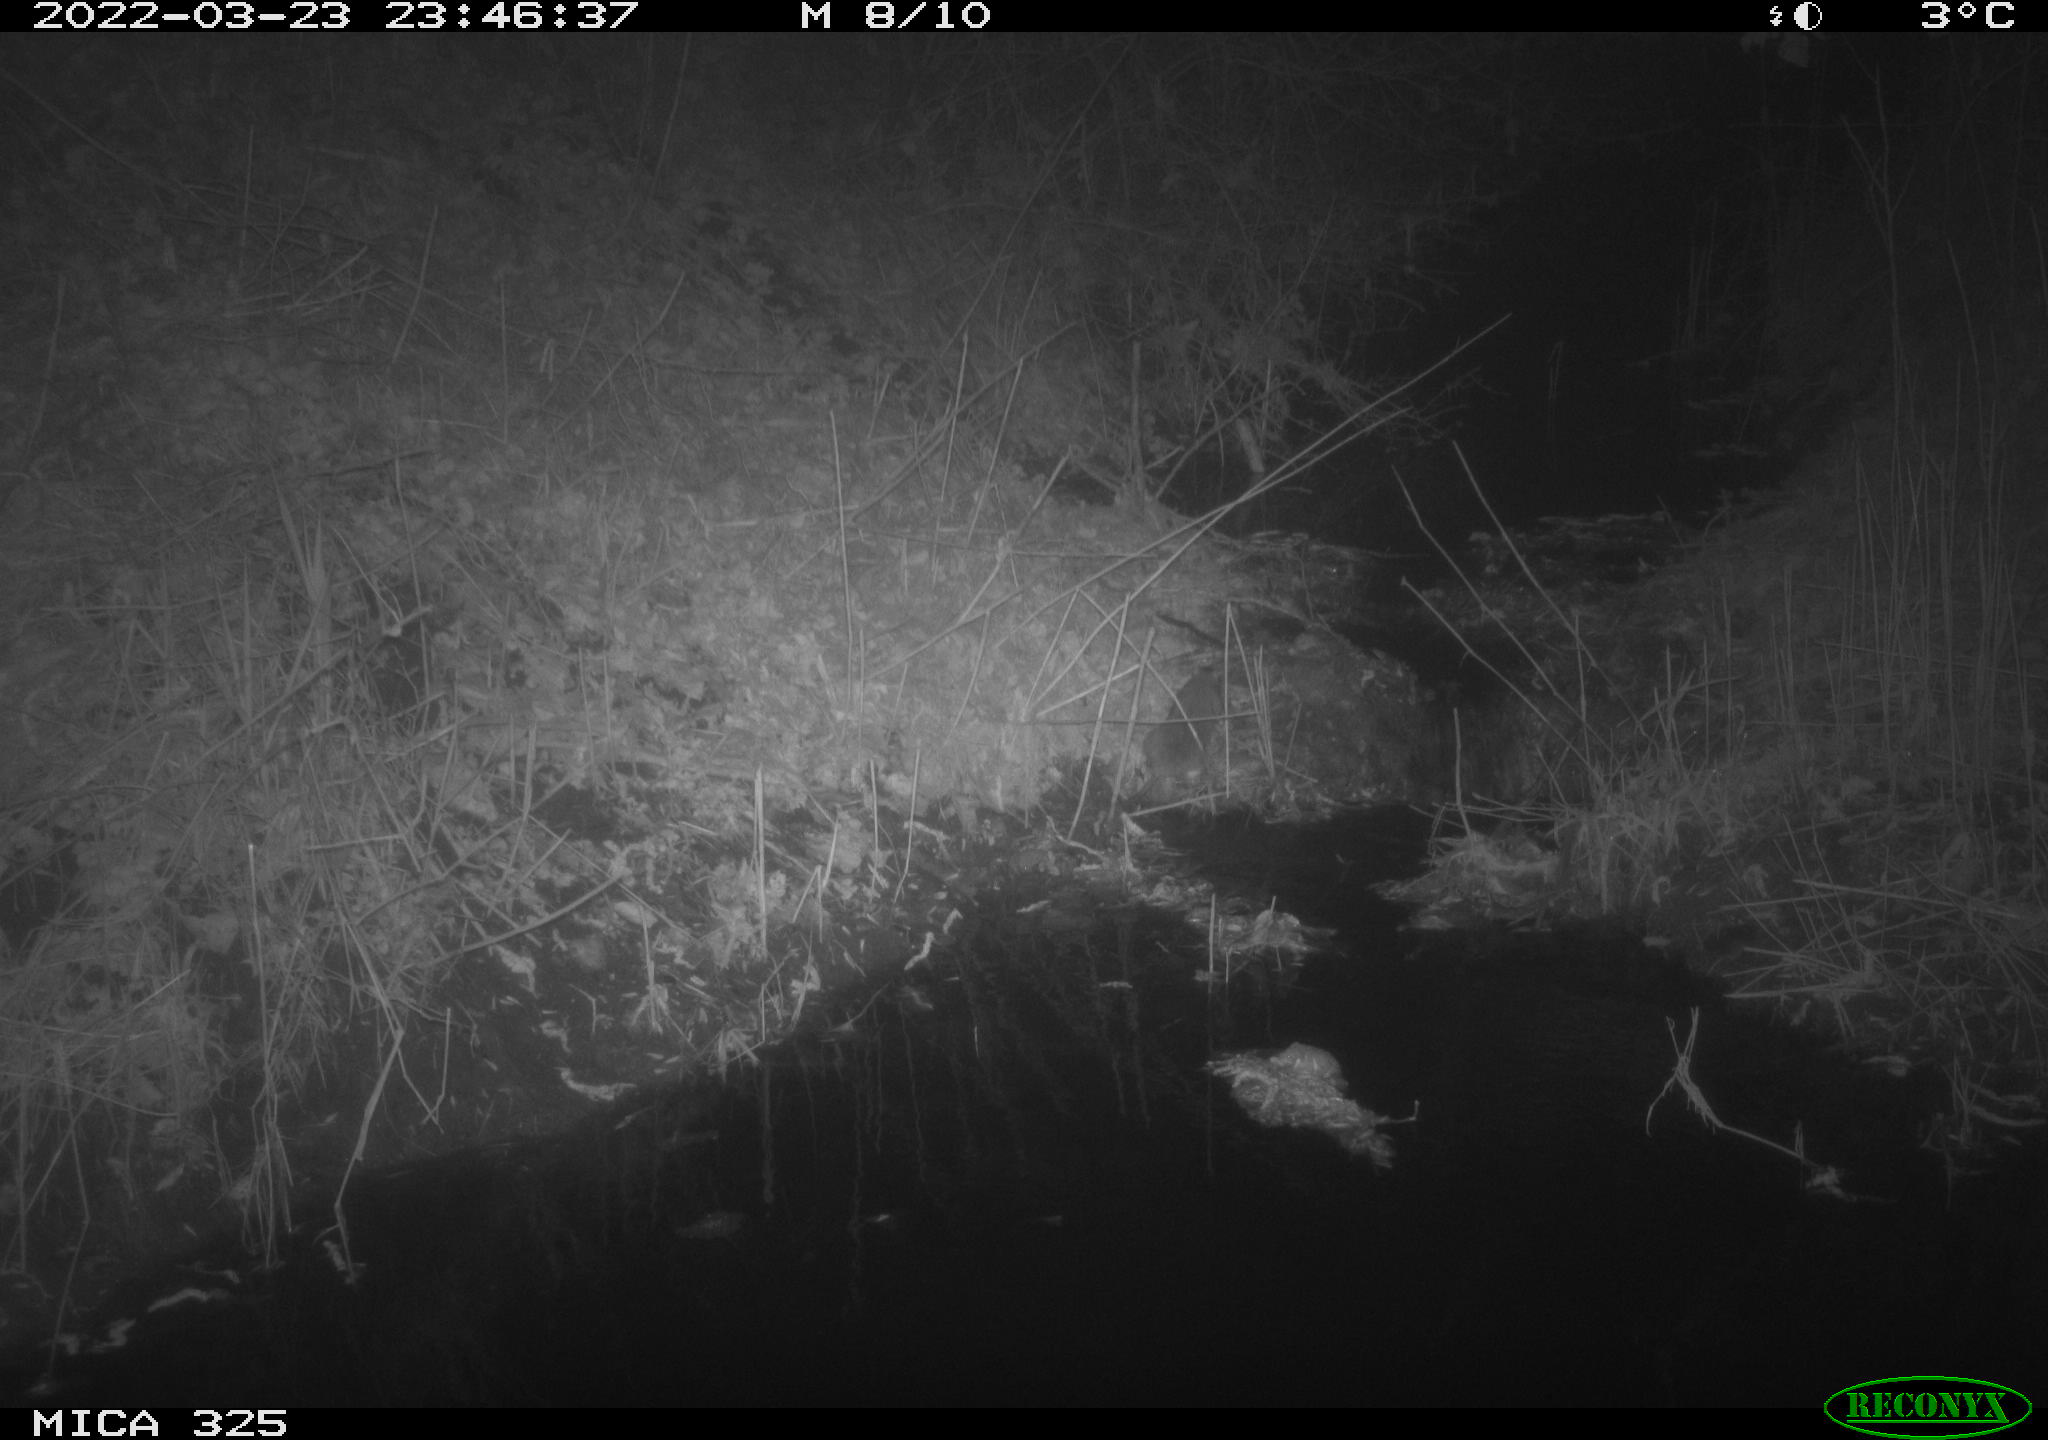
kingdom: Animalia
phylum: Chordata
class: Mammalia
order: Rodentia
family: Muridae
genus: Rattus
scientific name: Rattus norvegicus
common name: Brown rat
